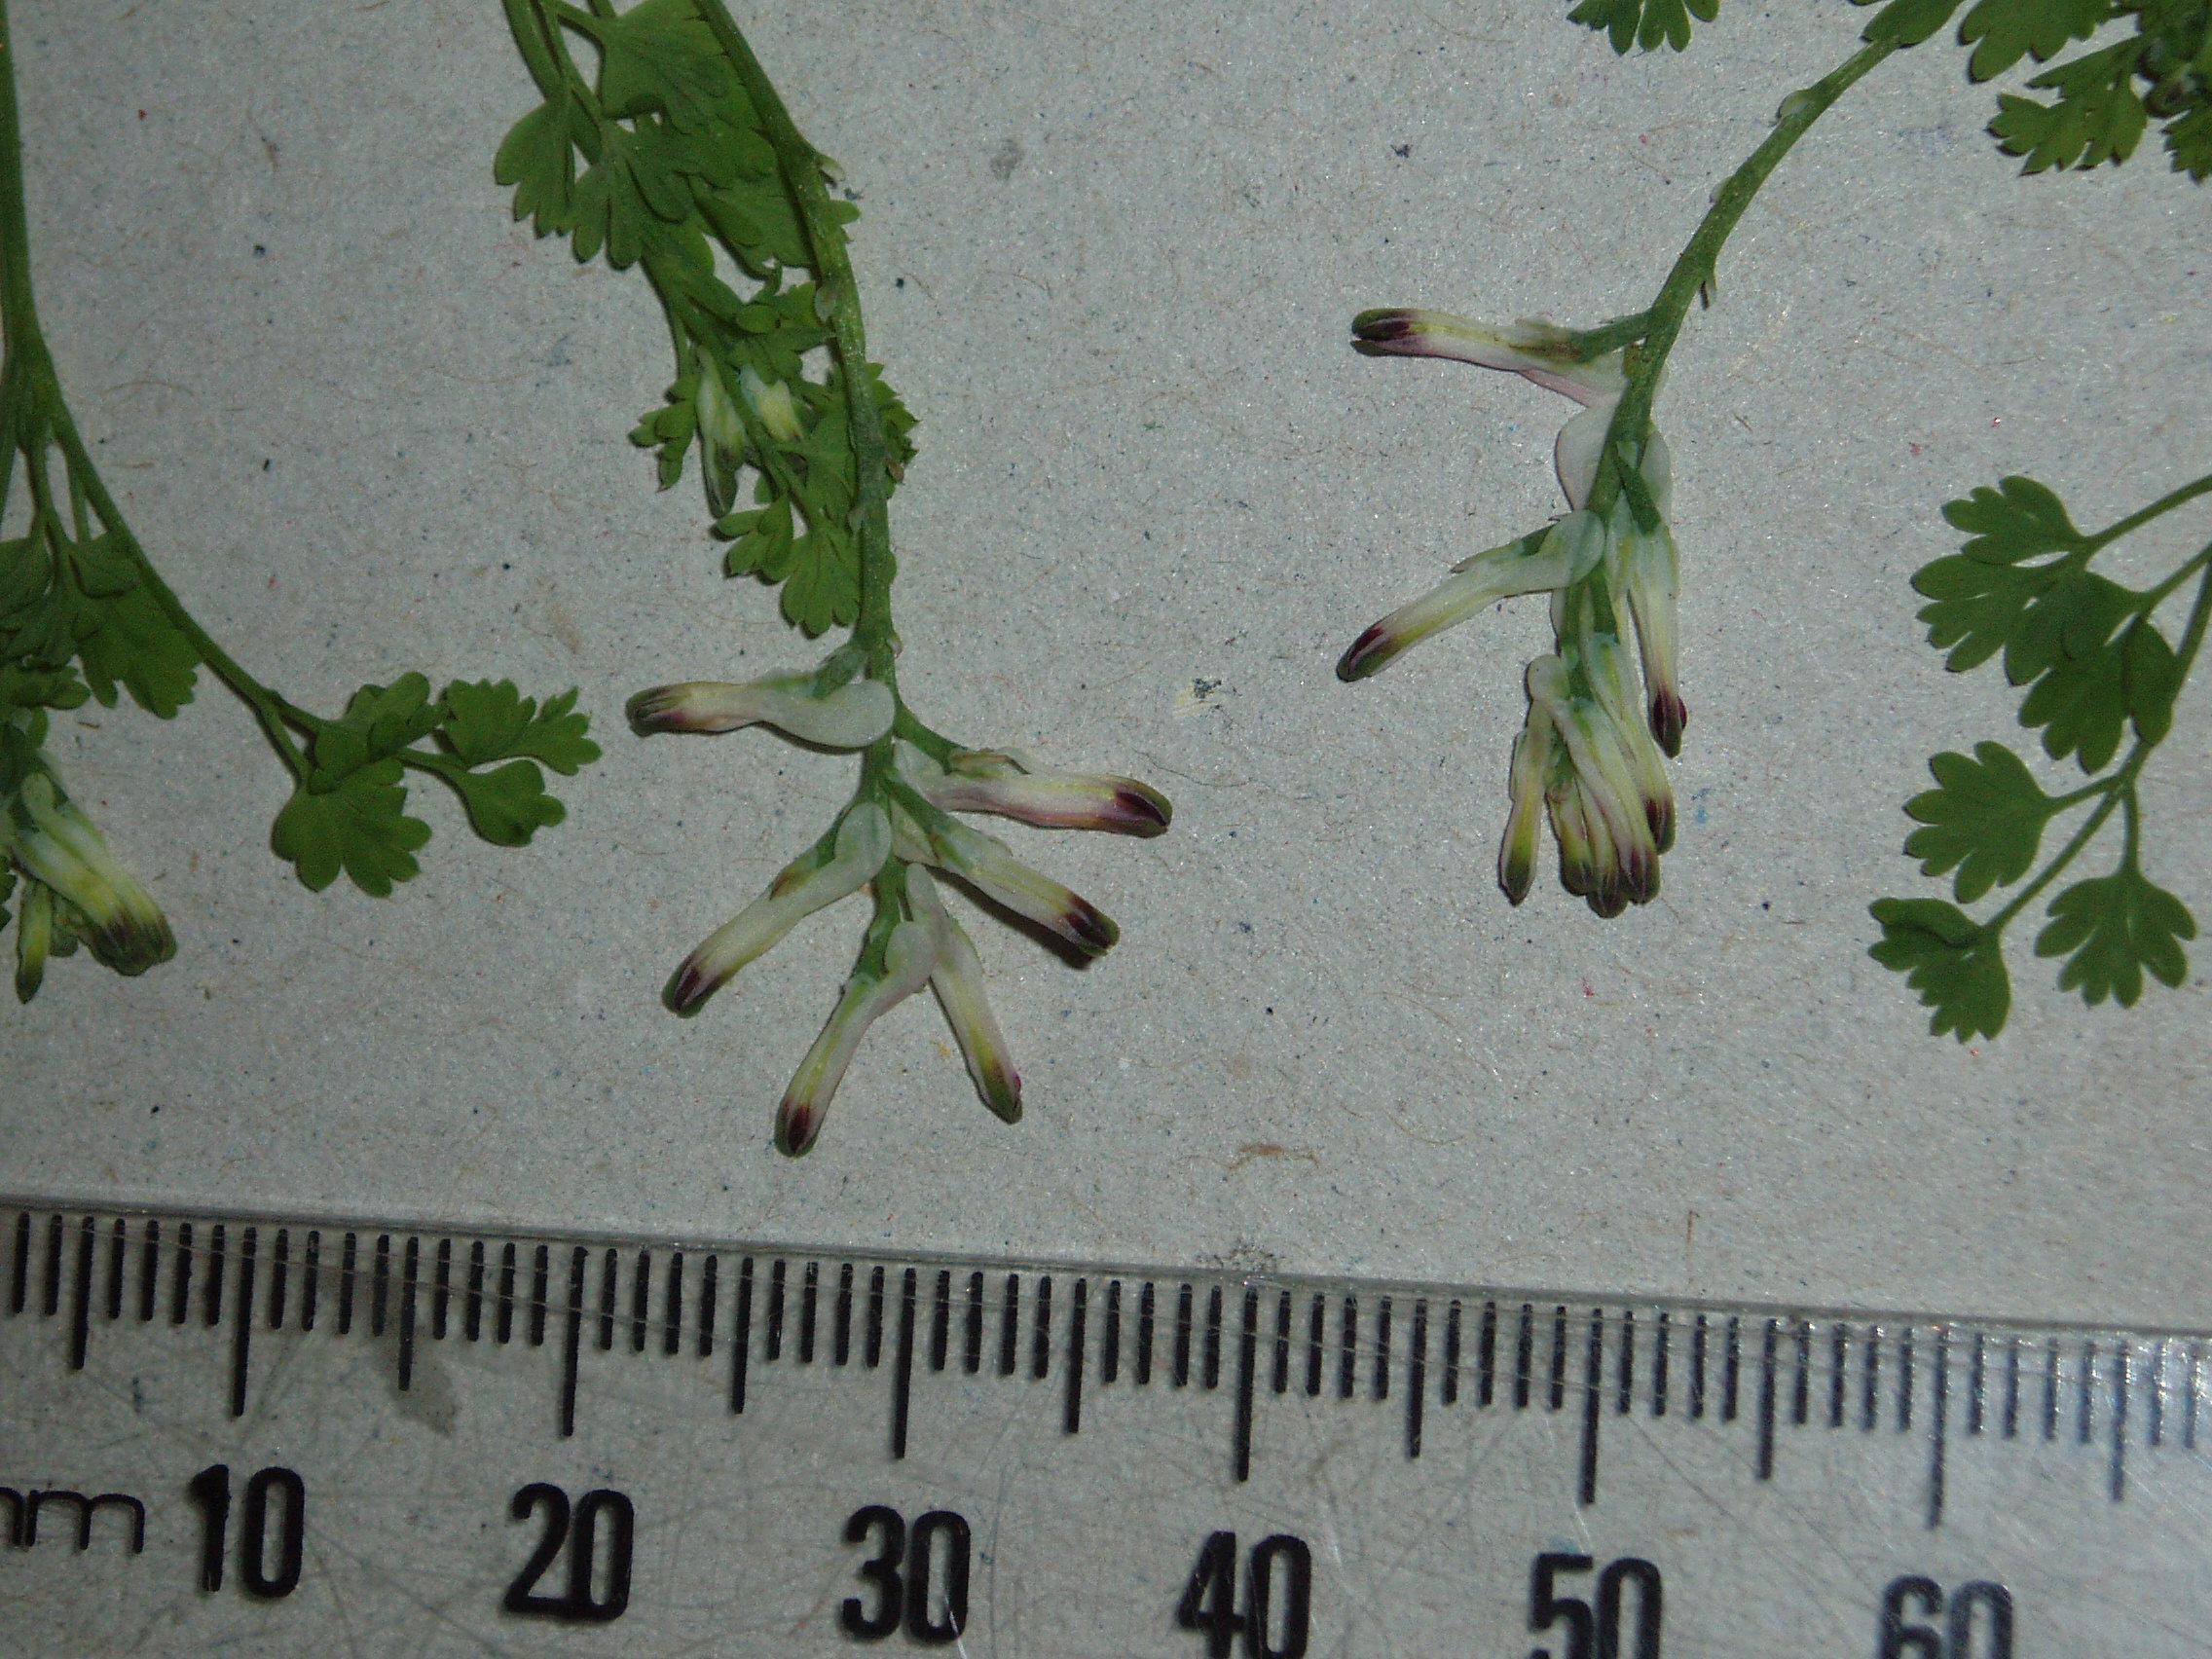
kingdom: Plantae
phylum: Tracheophyta
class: Magnoliopsida
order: Ranunculales
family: Papaveraceae
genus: Fumaria
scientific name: Fumaria capreolata
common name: White ramping-fumitory
